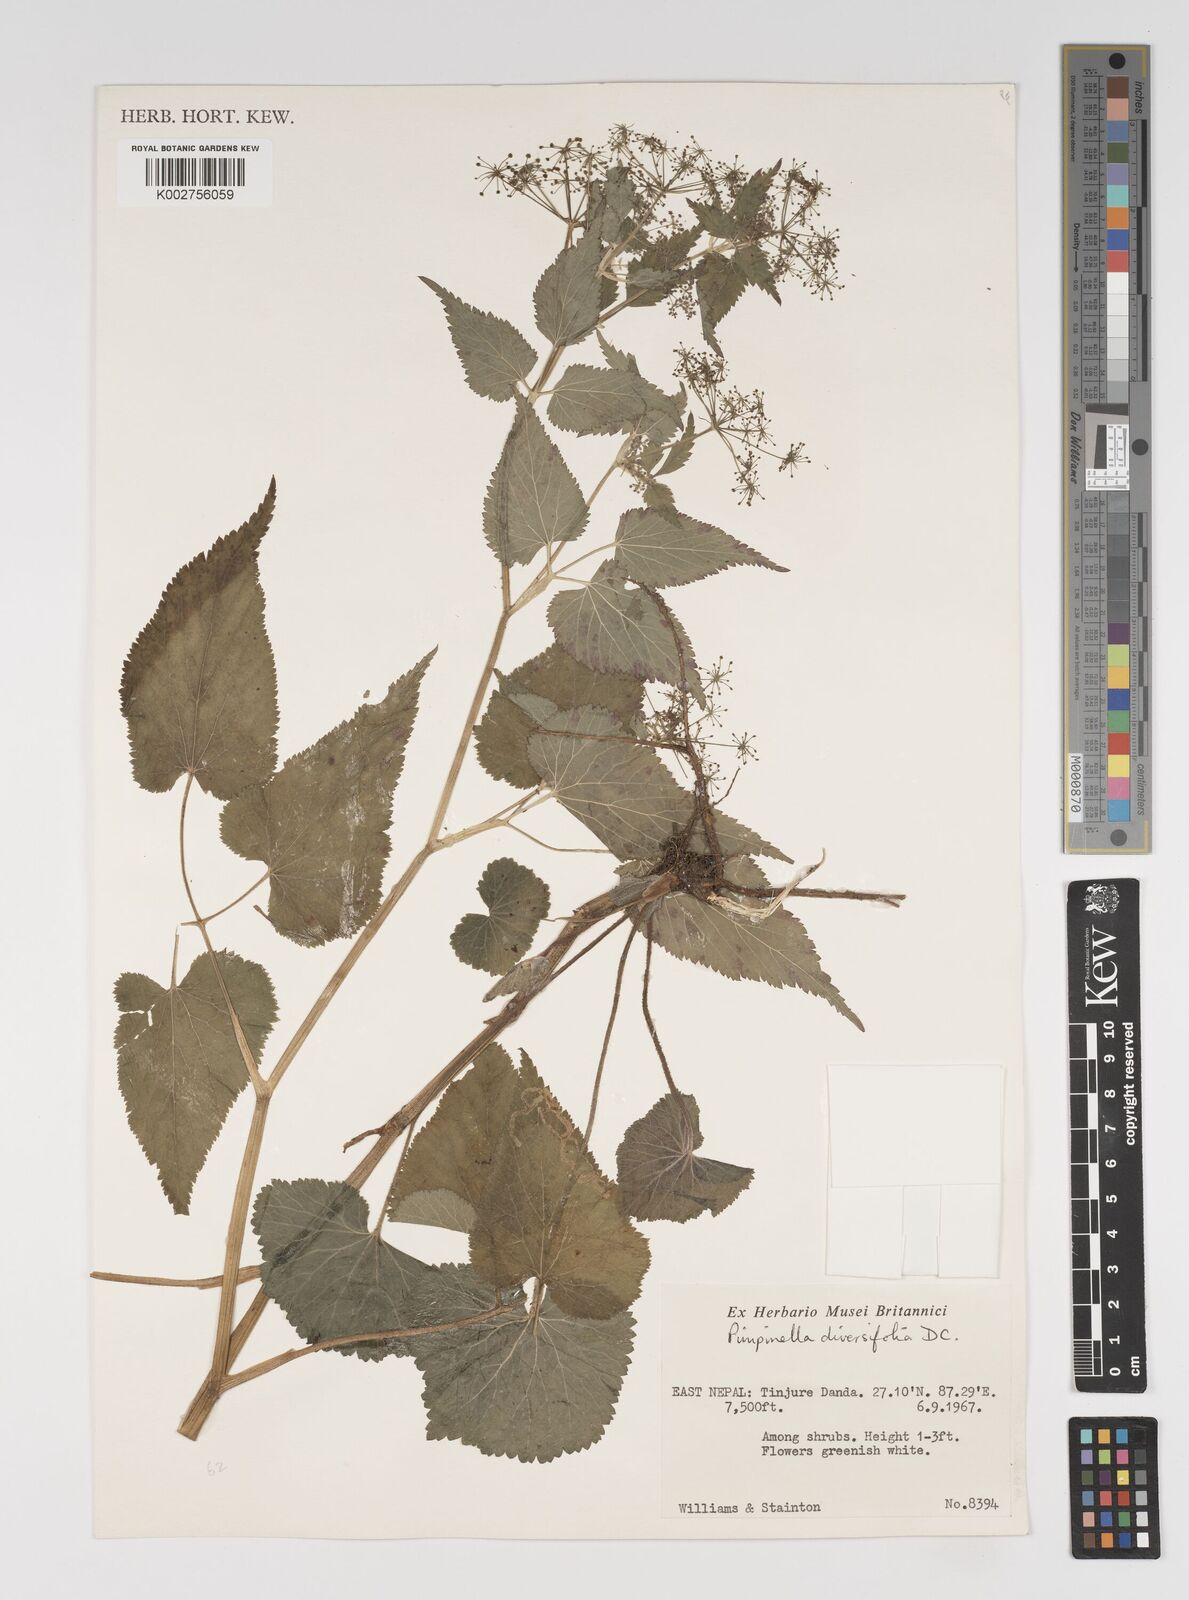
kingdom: Plantae
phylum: Tracheophyta
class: Magnoliopsida
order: Apiales
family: Apiaceae
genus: Pimpinella
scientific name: Pimpinella diversifolia
